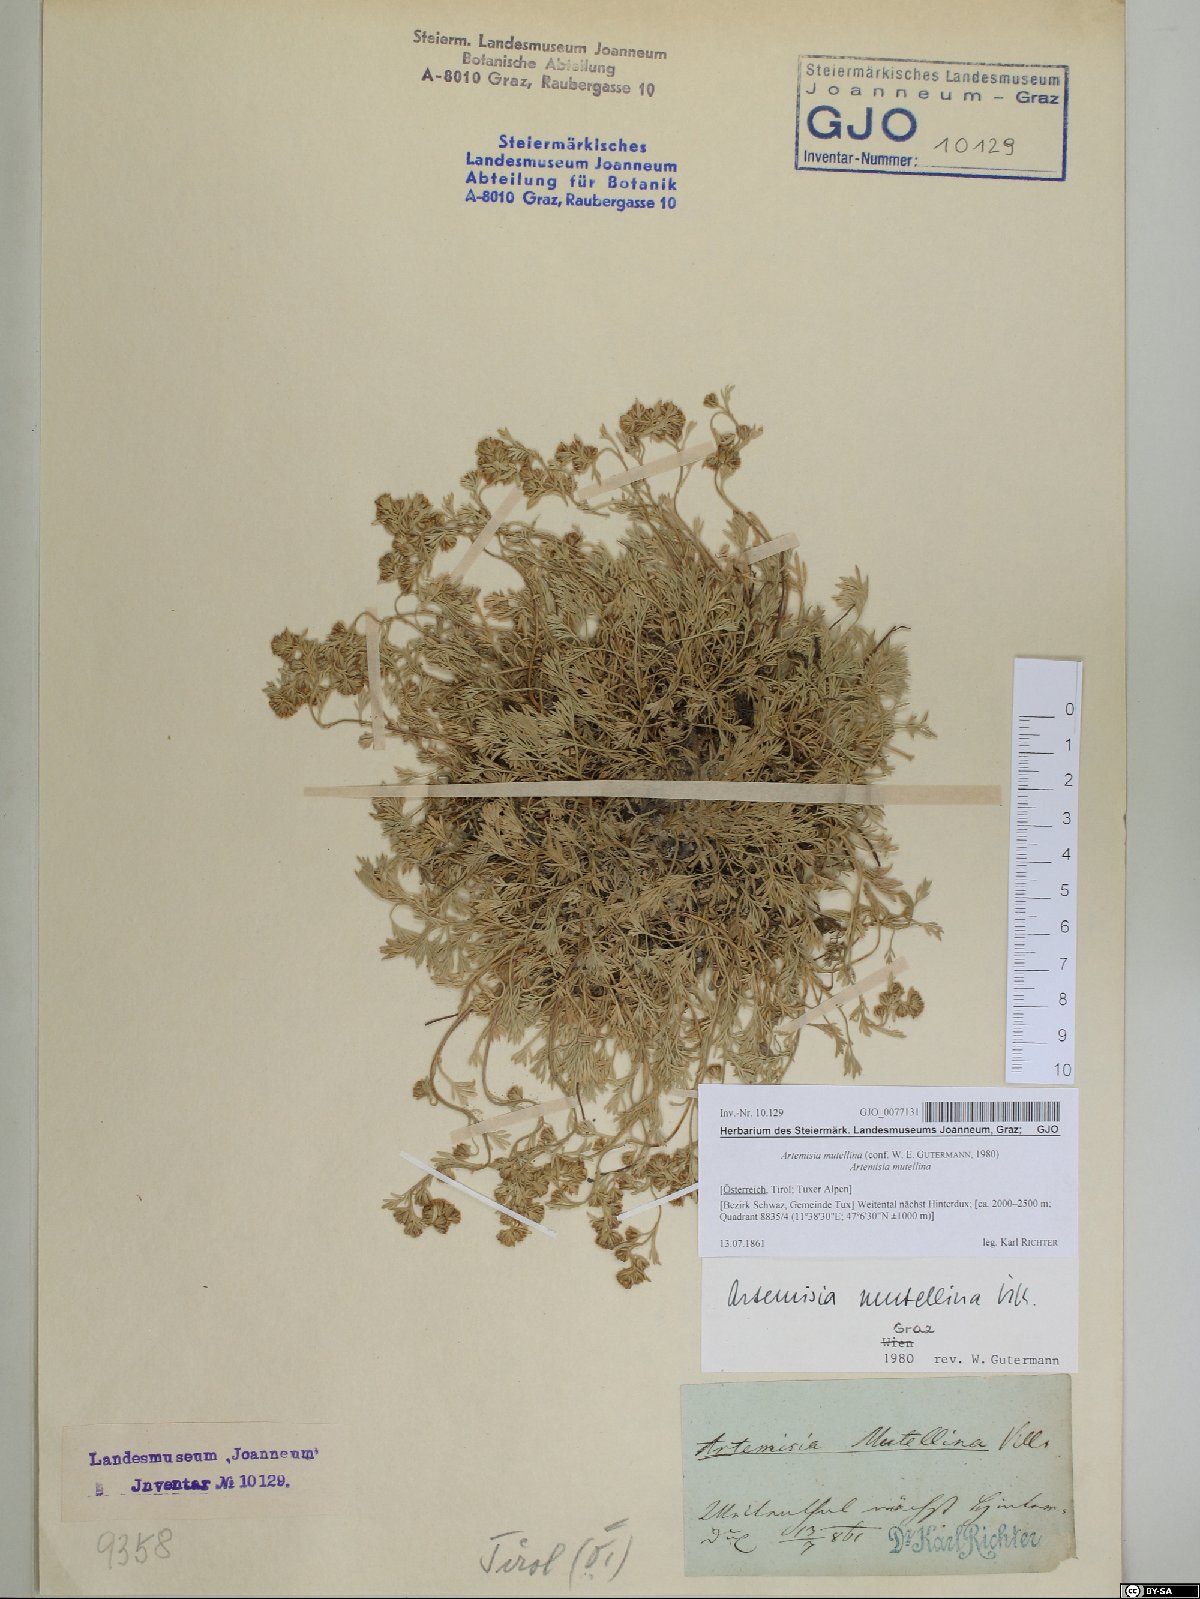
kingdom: Plantae
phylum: Tracheophyta
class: Magnoliopsida
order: Asterales
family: Asteraceae
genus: Artemisia
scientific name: Artemisia mutellina
